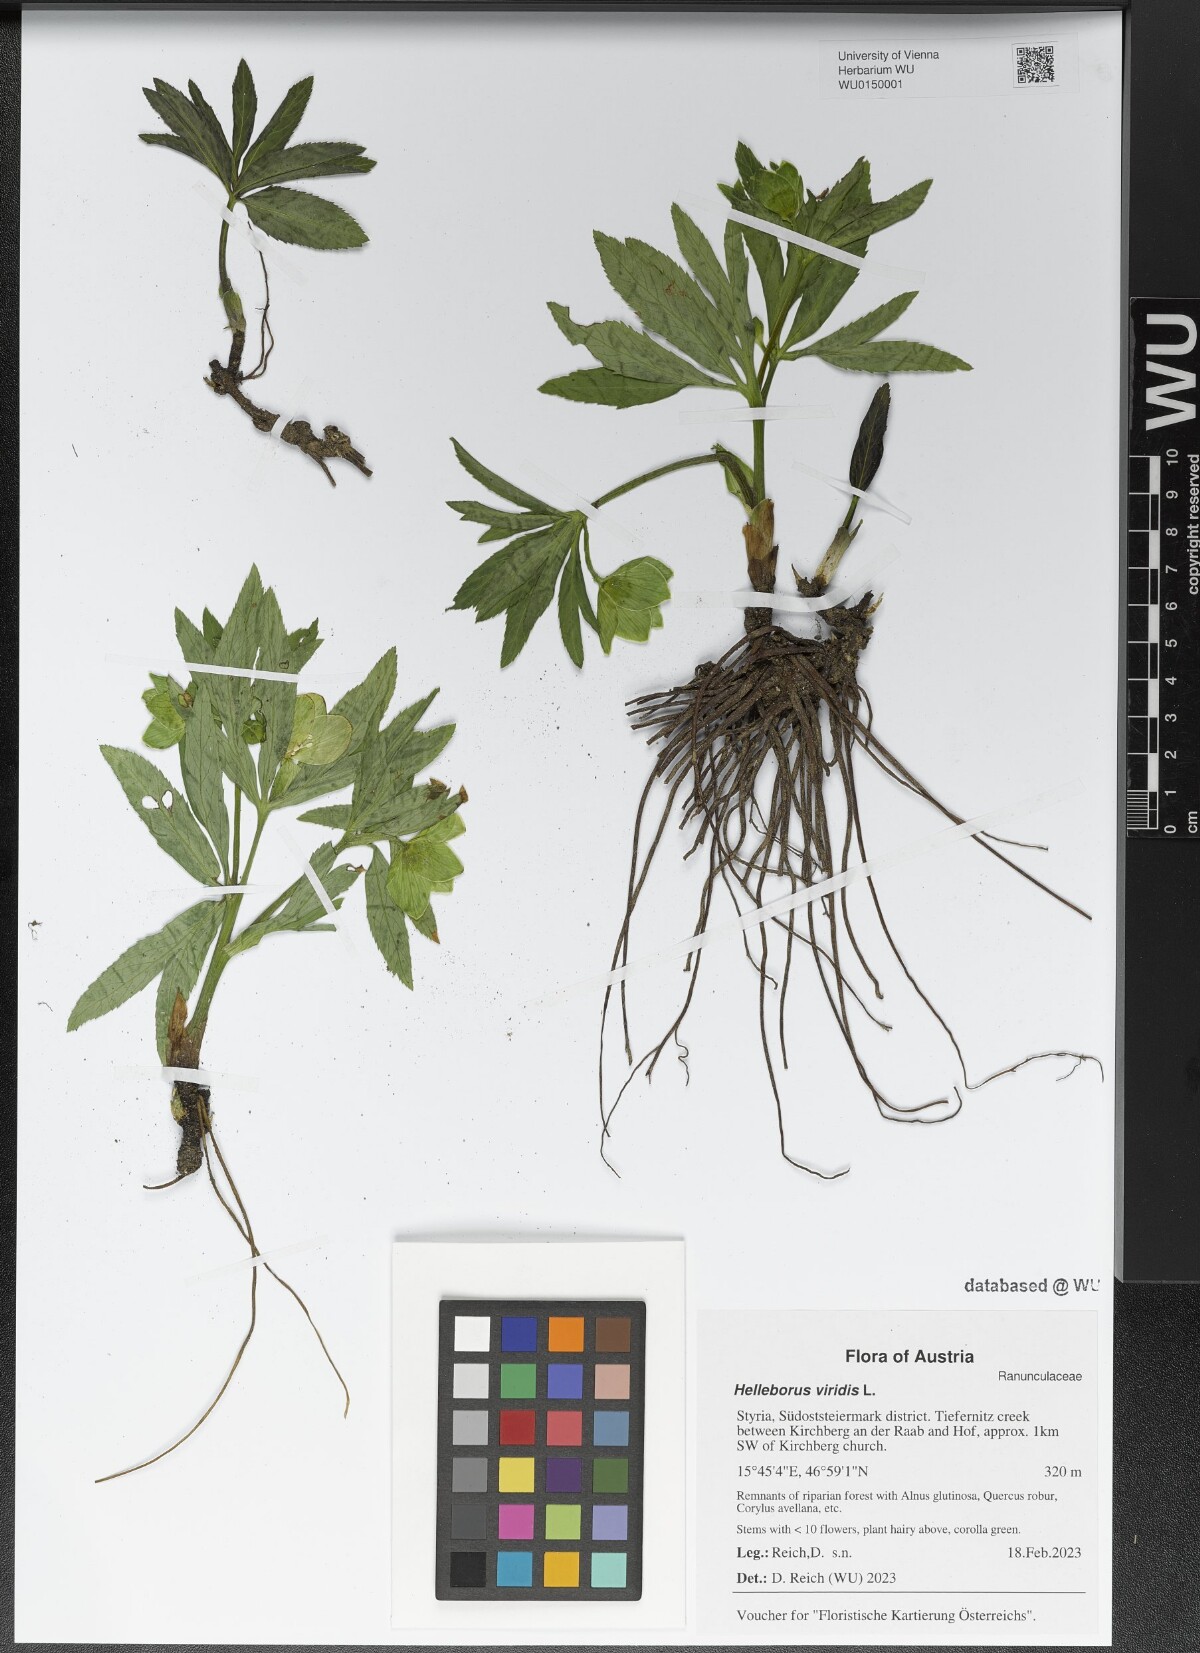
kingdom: Plantae
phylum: Tracheophyta
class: Magnoliopsida
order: Ranunculales
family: Ranunculaceae
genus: Helleborus
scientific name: Helleborus viridis
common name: Green hellebore
